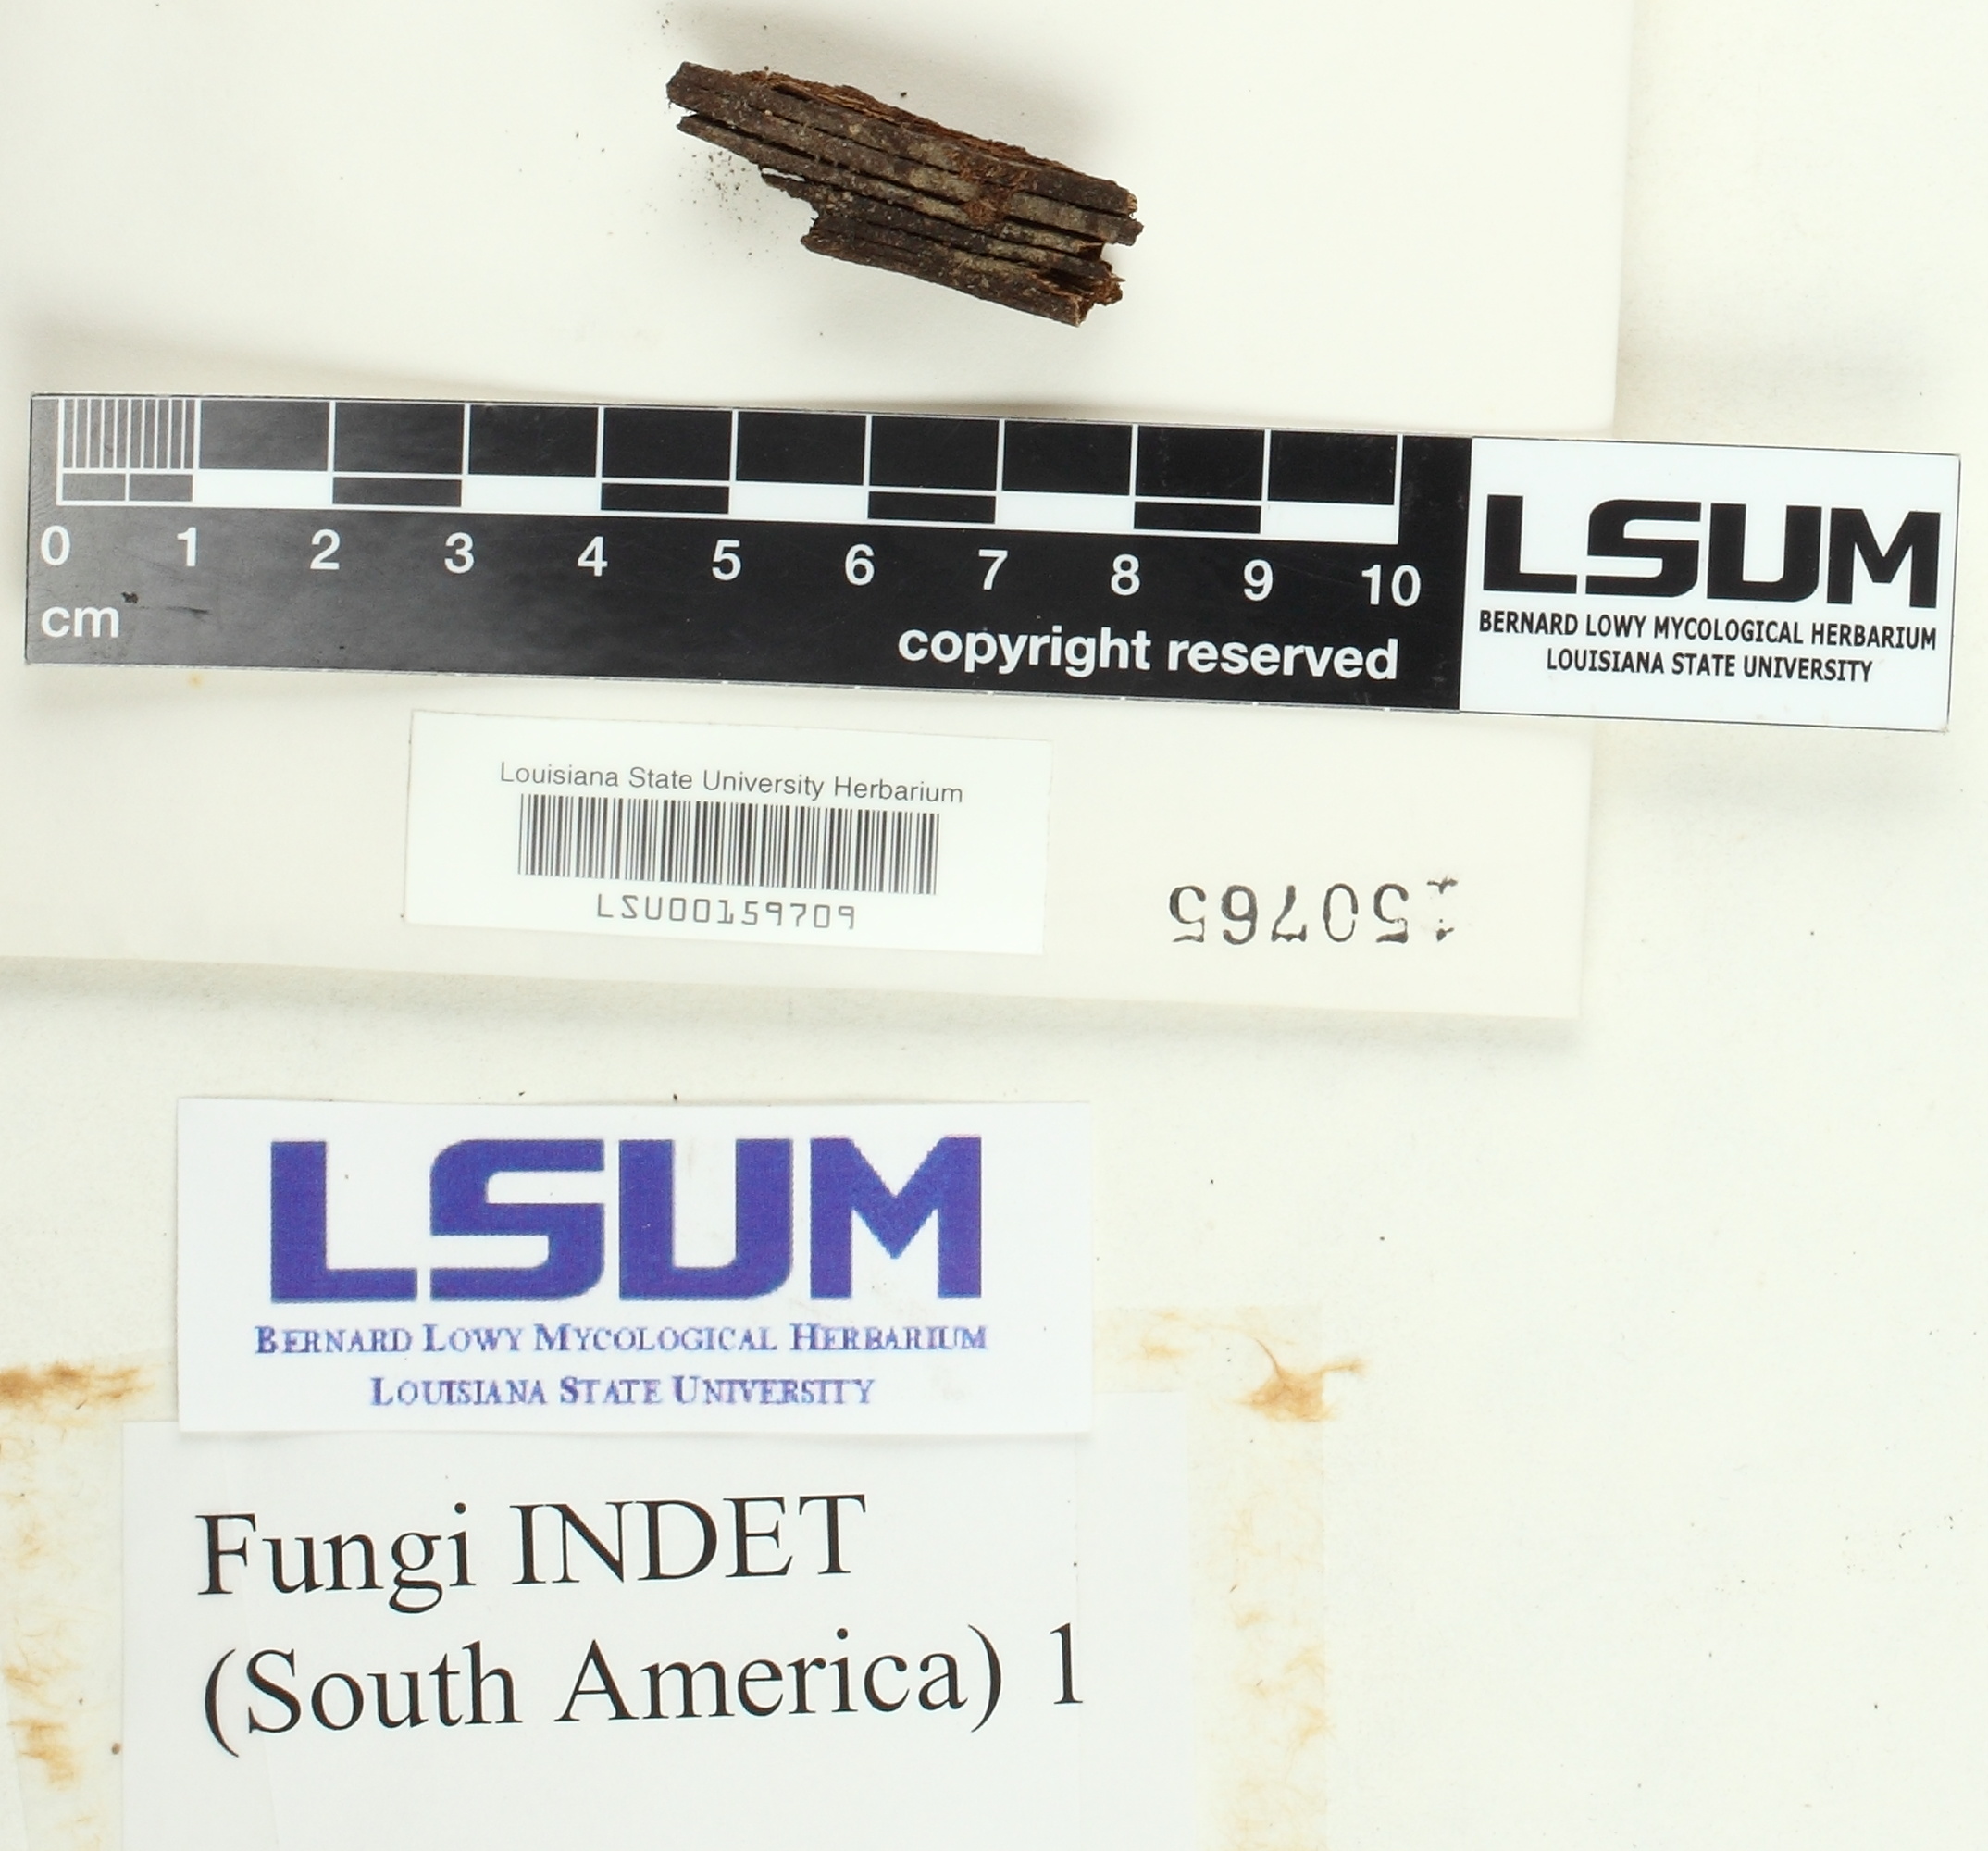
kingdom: Fungi
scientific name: Fungi
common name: Fungi
